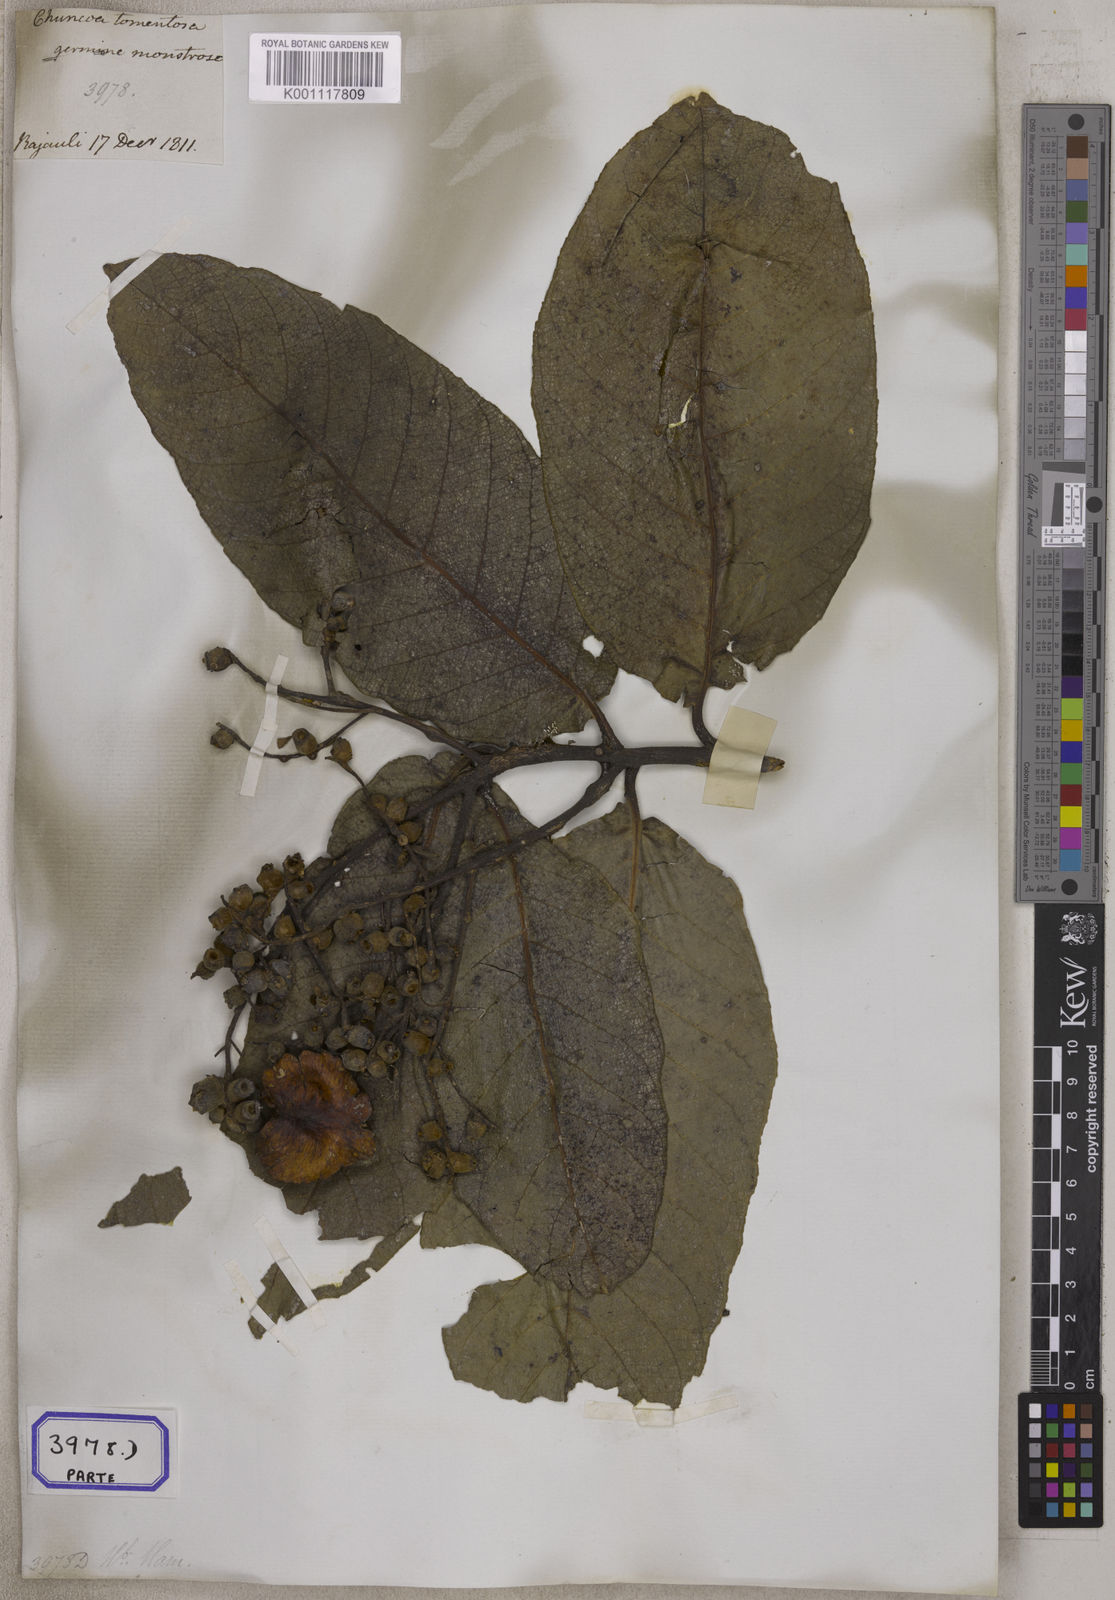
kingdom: Plantae
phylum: Tracheophyta
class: Magnoliopsida
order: Myrtales
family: Combretaceae
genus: Terminalia
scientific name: Terminalia
